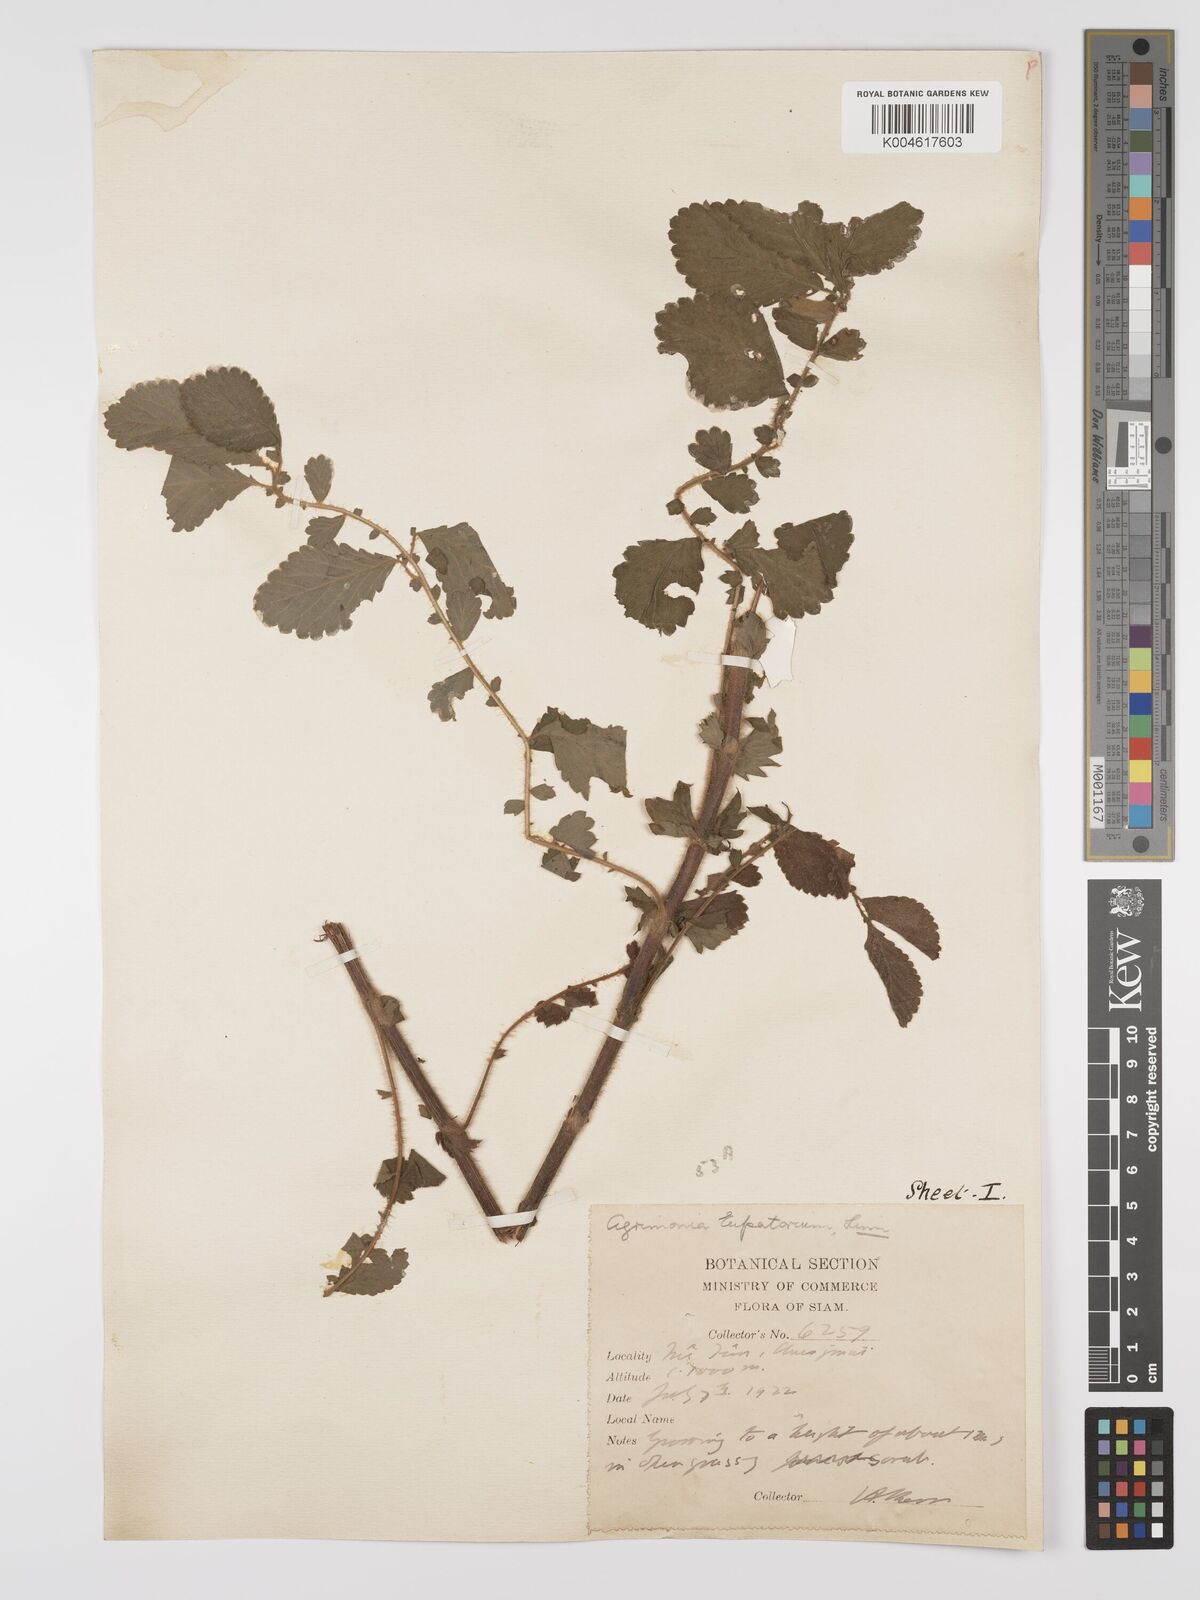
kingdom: Plantae
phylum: Tracheophyta
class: Magnoliopsida
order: Rosales
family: Rosaceae
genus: Agrimonia
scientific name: Agrimonia eupatoria
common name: Agrimony
